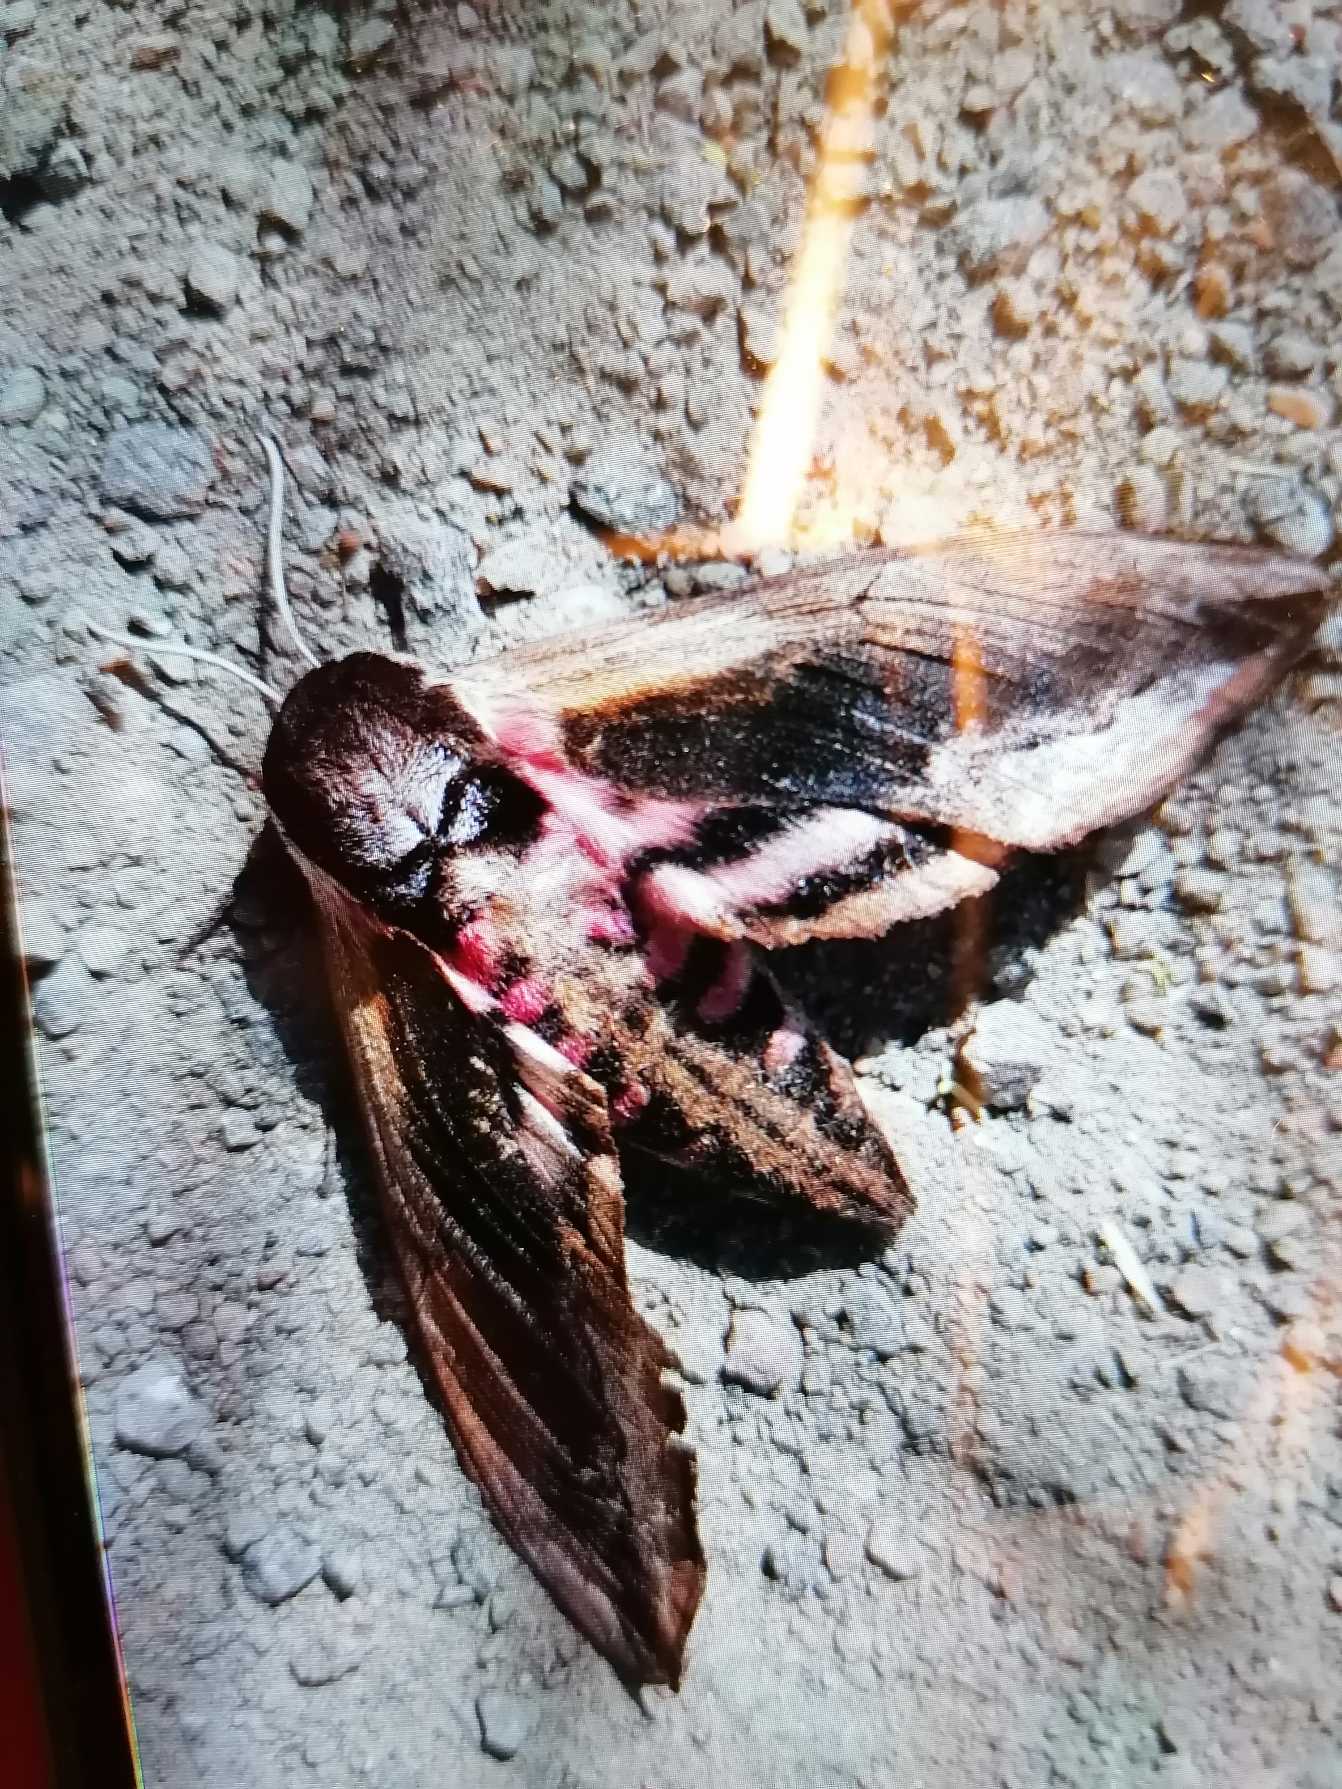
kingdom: Animalia
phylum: Arthropoda
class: Insecta
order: Lepidoptera
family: Sphingidae
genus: Sphinx
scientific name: Sphinx ligustri
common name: Ligustersværmer
